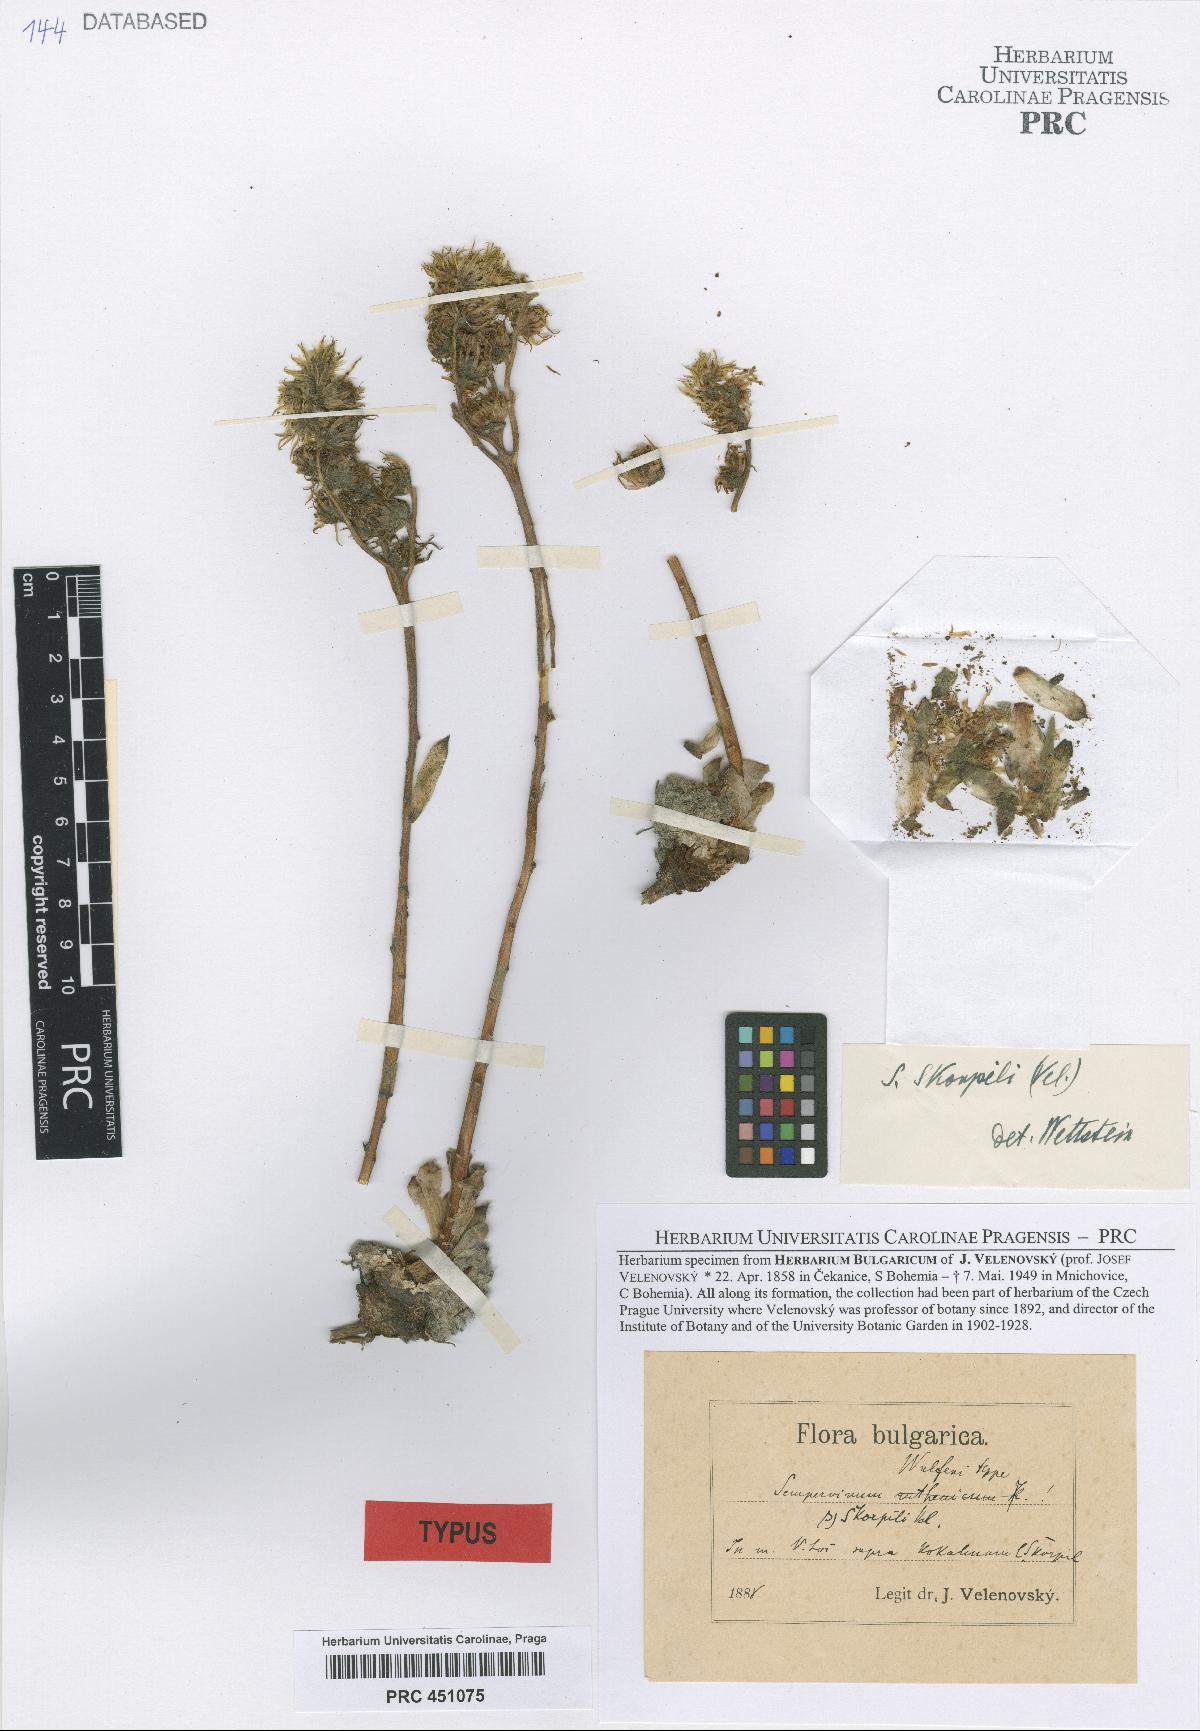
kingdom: Plantae
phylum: Tracheophyta
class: Magnoliopsida
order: Saxifragales
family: Crassulaceae
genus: Sempervivum
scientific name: Sempervivum ciliosum
